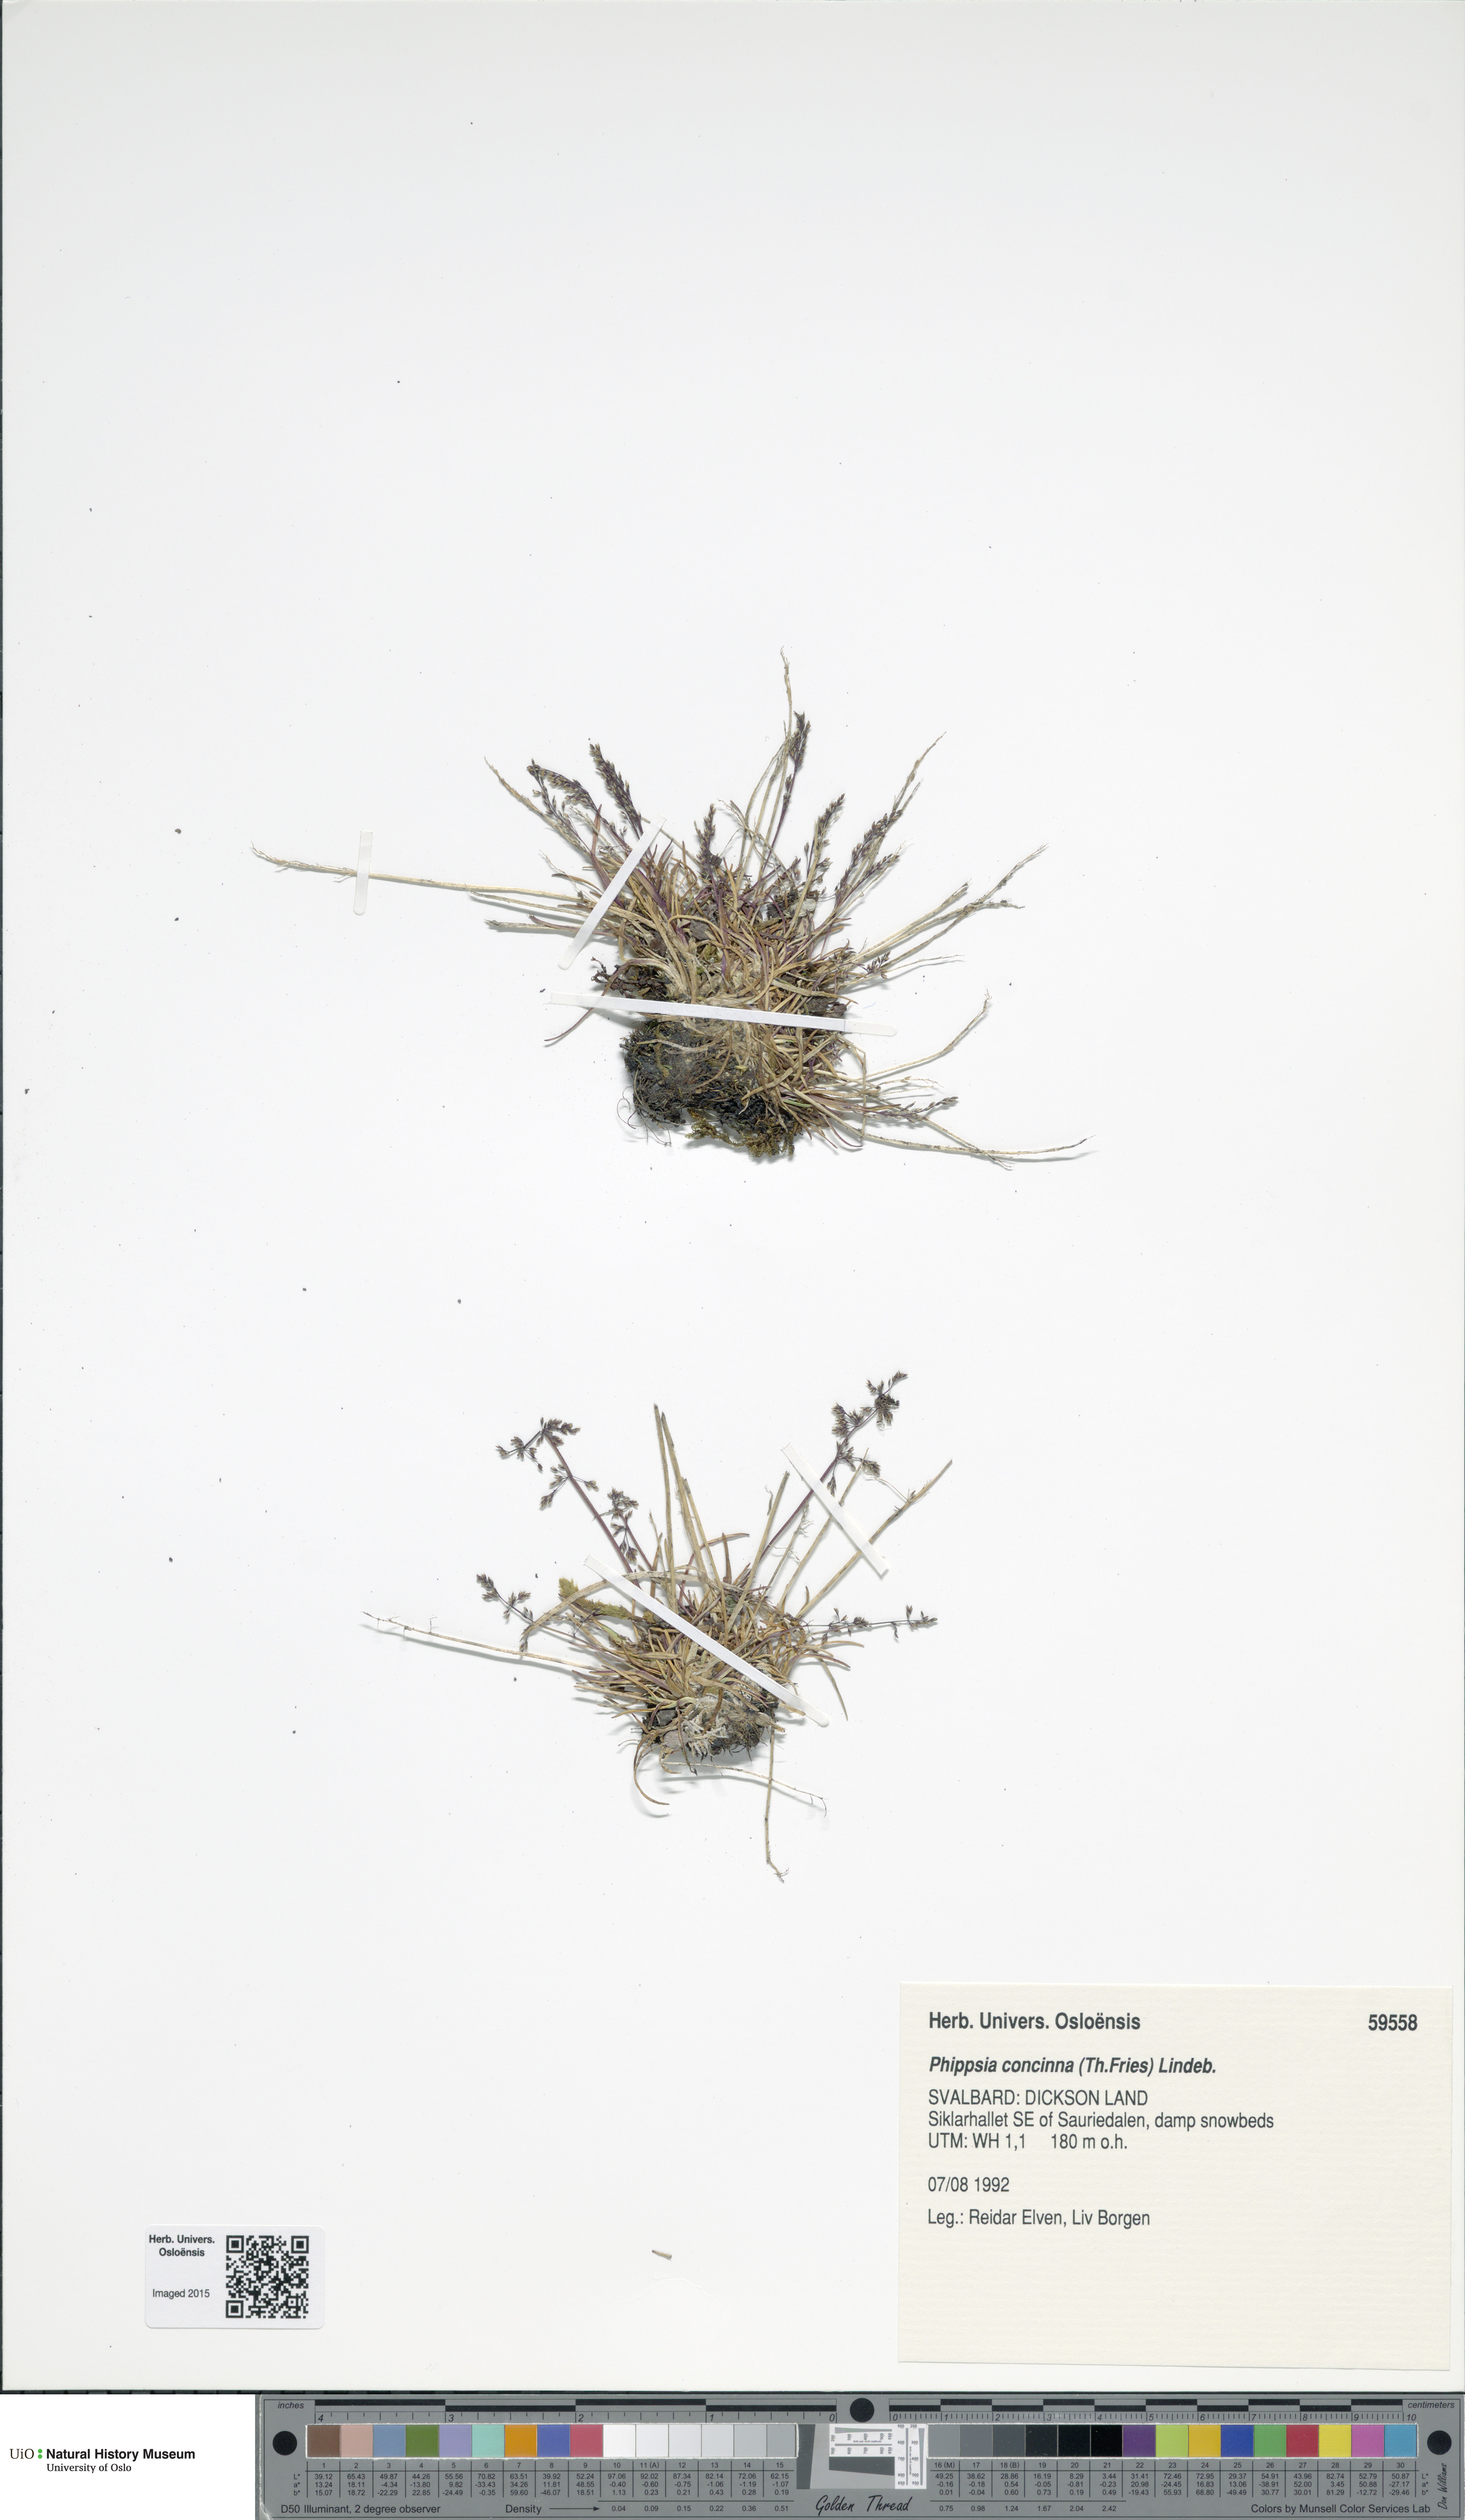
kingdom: Plantae
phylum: Tracheophyta
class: Liliopsida
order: Poales
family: Poaceae
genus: Phippsia
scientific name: Phippsia concinna
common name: Snowgrass
